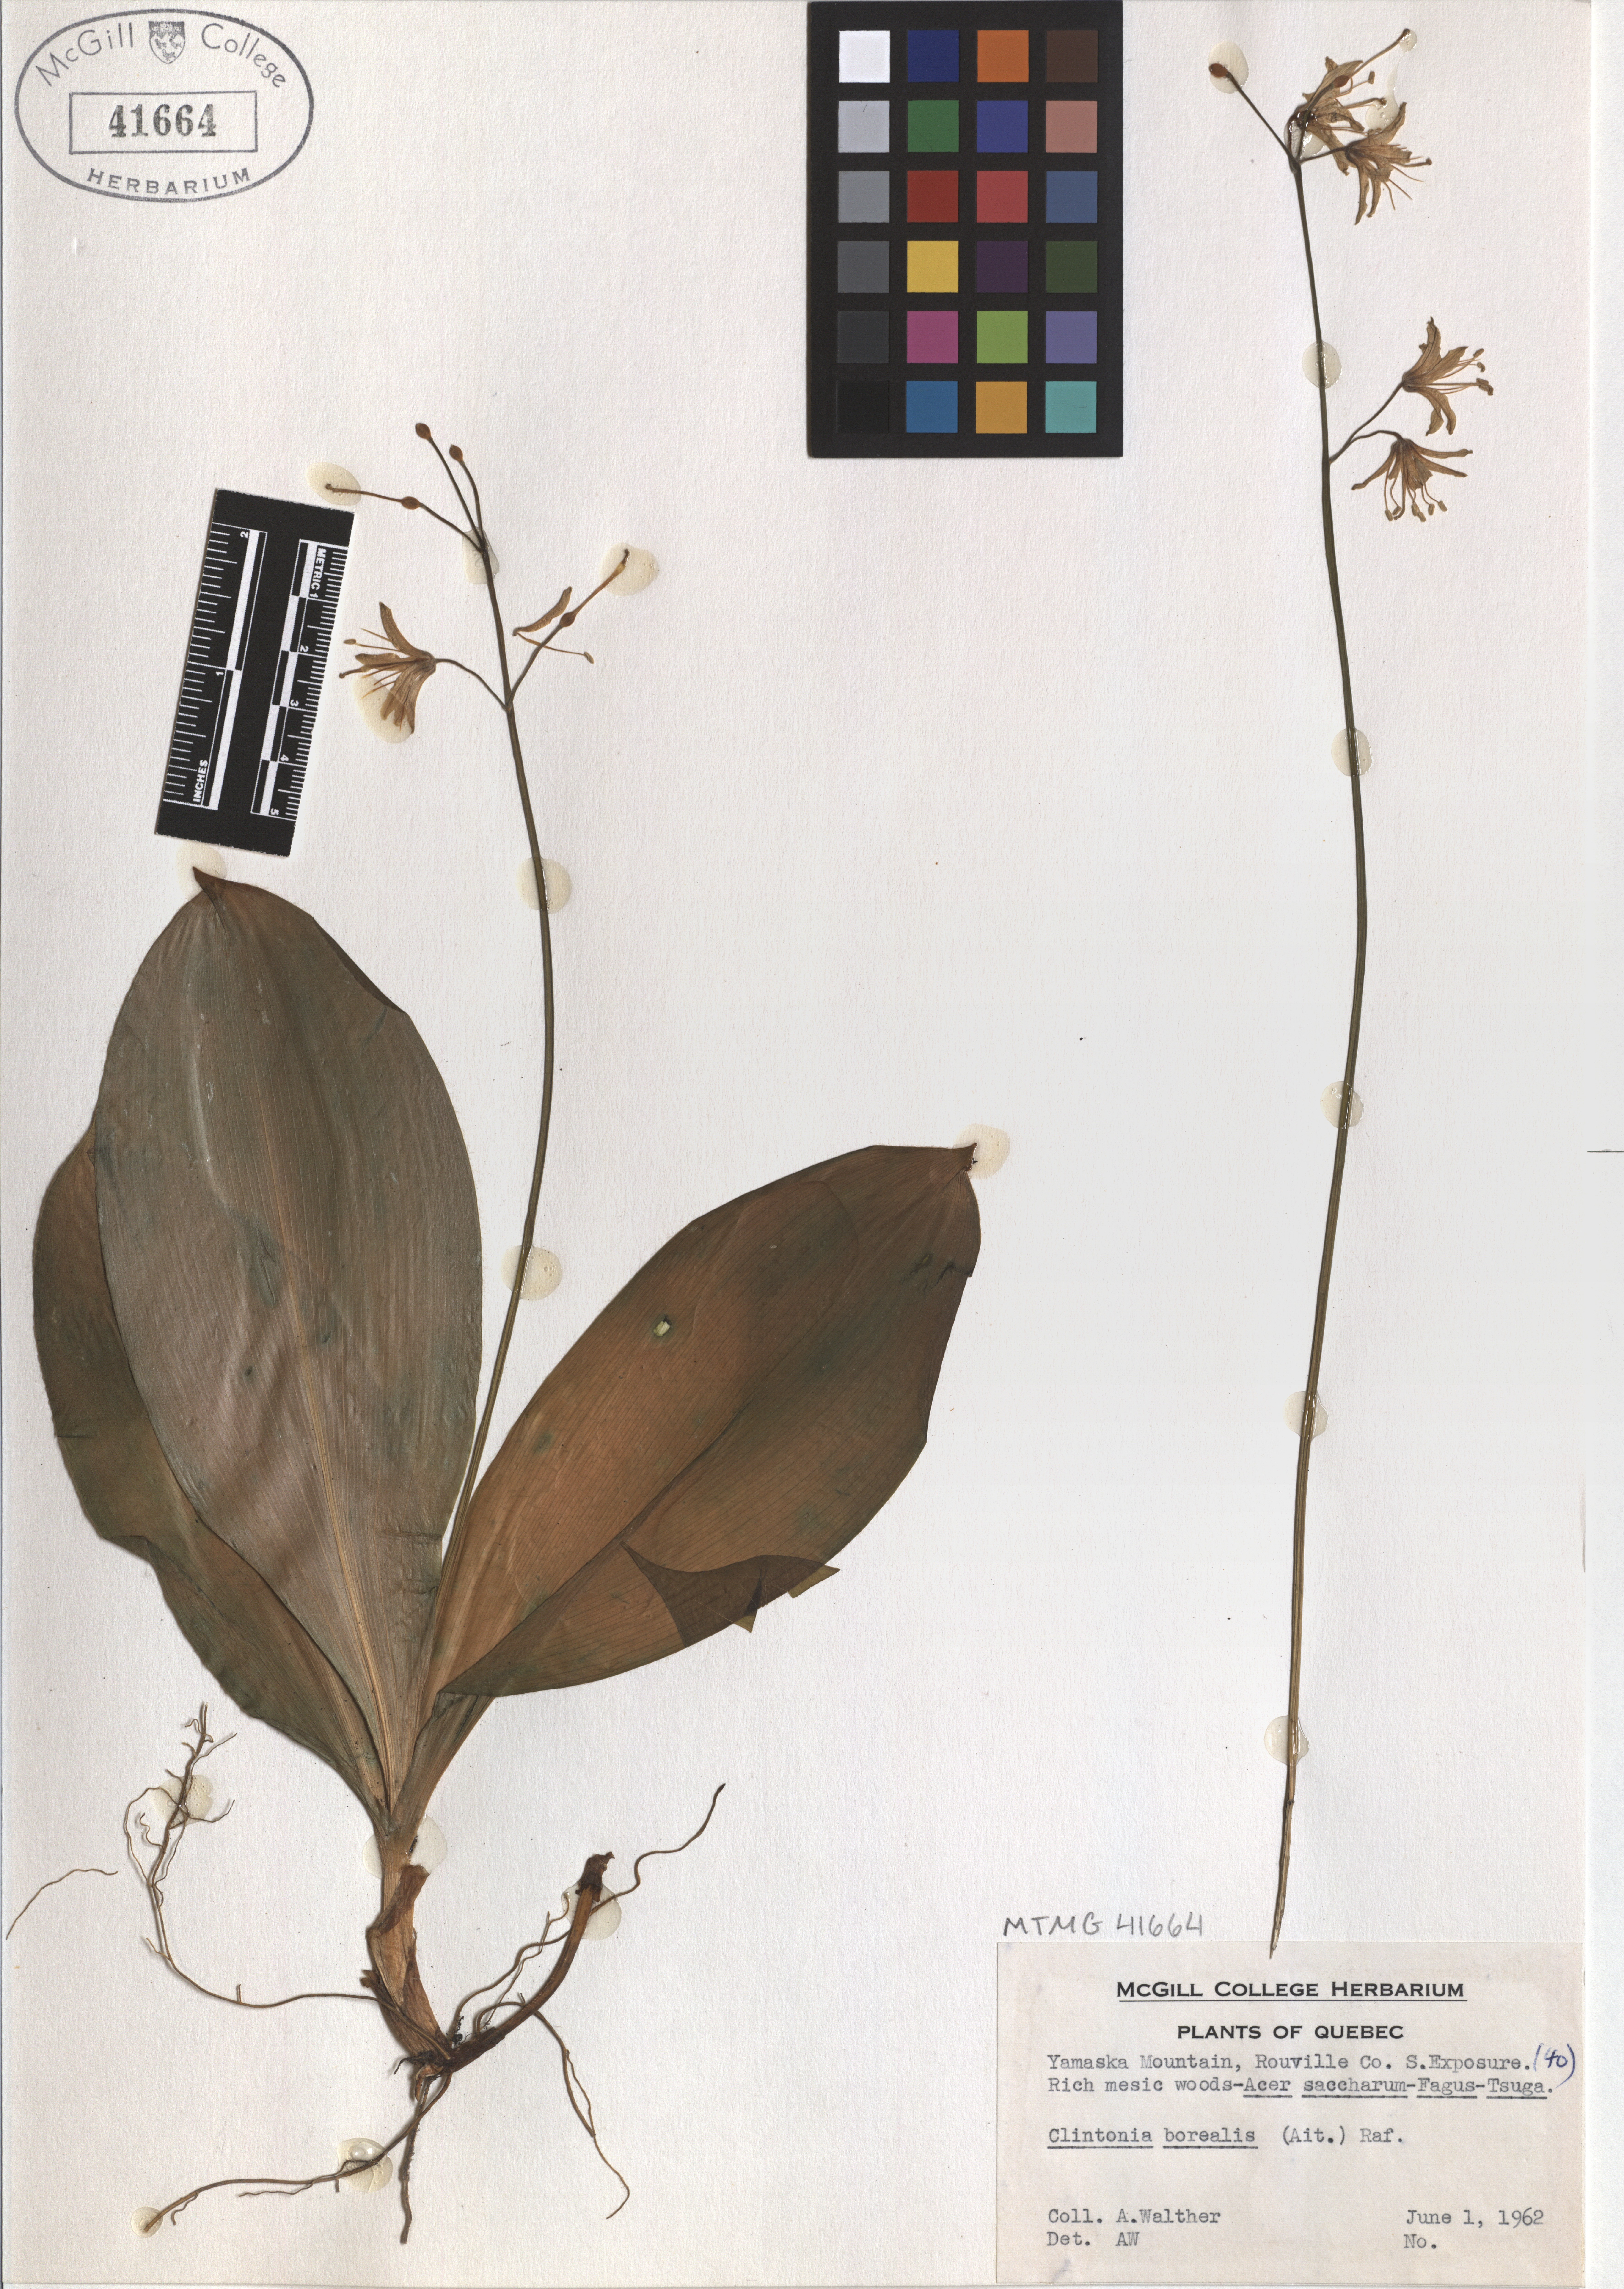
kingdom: Plantae
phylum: Tracheophyta
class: Liliopsida
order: Liliales
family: Liliaceae
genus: Clintonia
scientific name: Clintonia borealis
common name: Yellow clintonia
